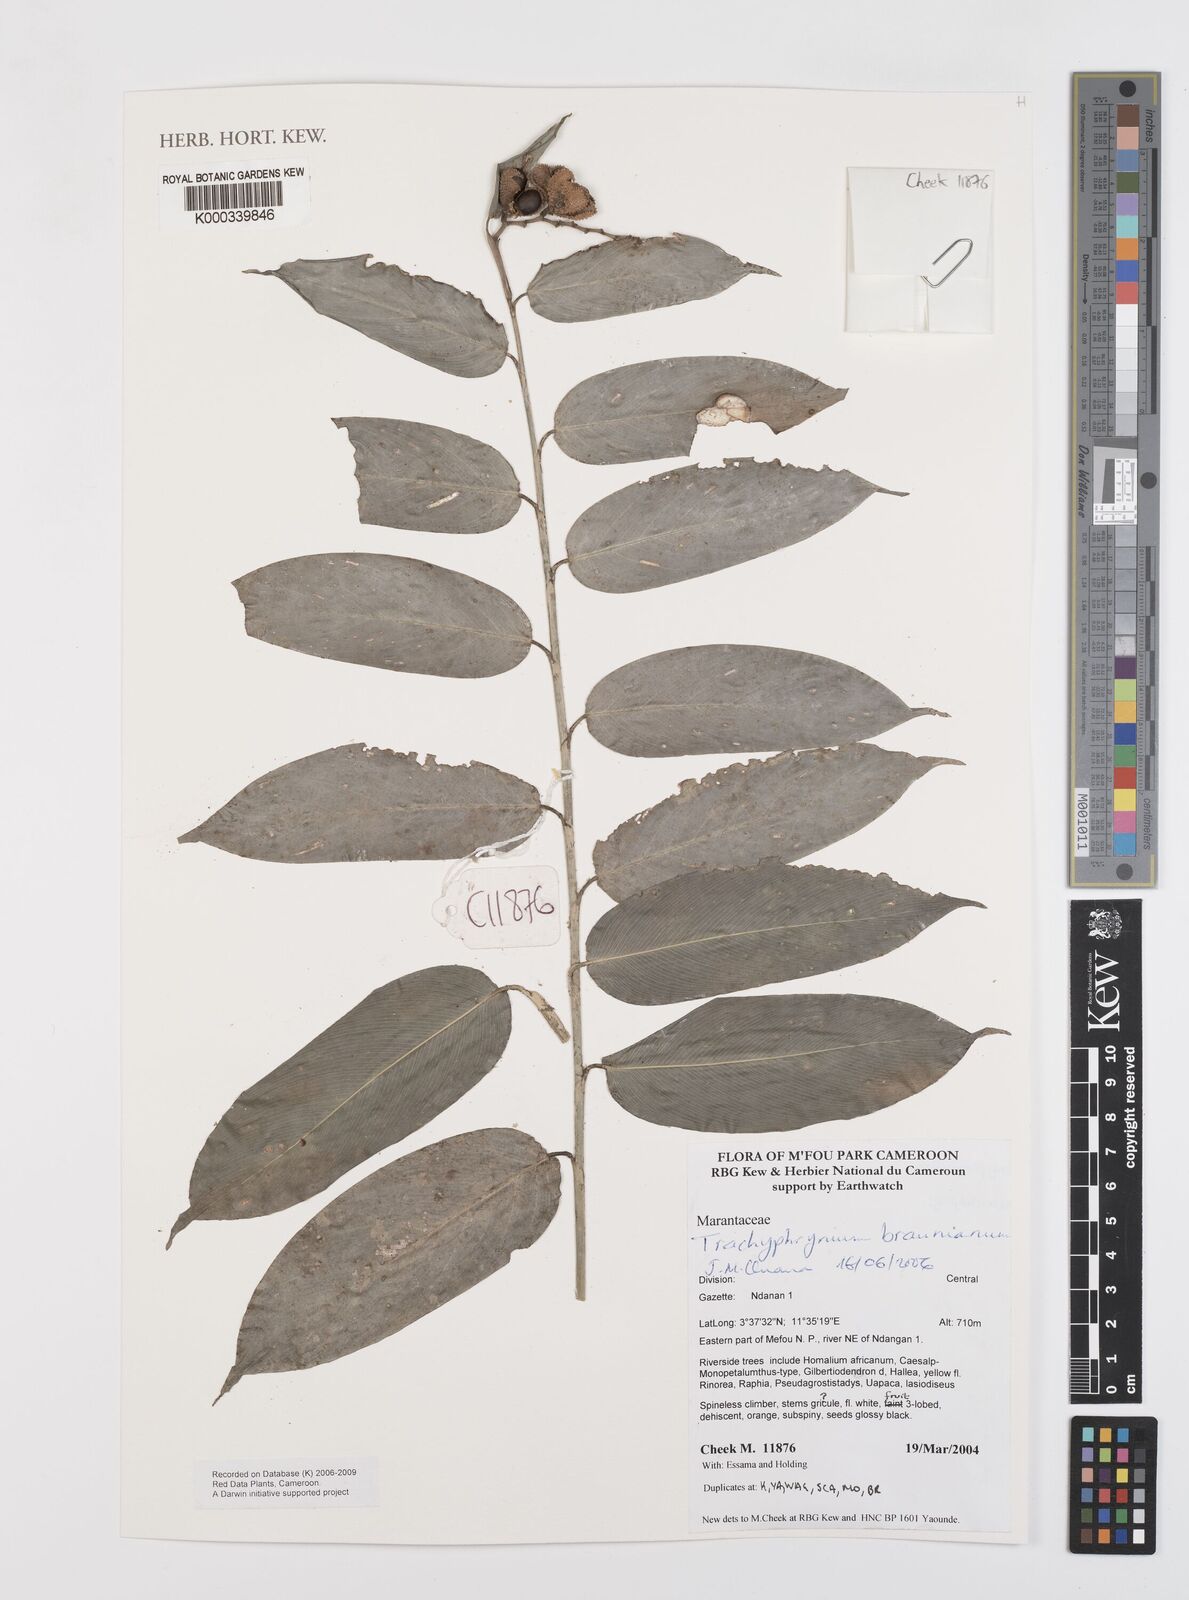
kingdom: Plantae
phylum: Tracheophyta
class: Liliopsida
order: Zingiberales
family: Marantaceae
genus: Trachyphrynium
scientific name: Trachyphrynium braunianum
